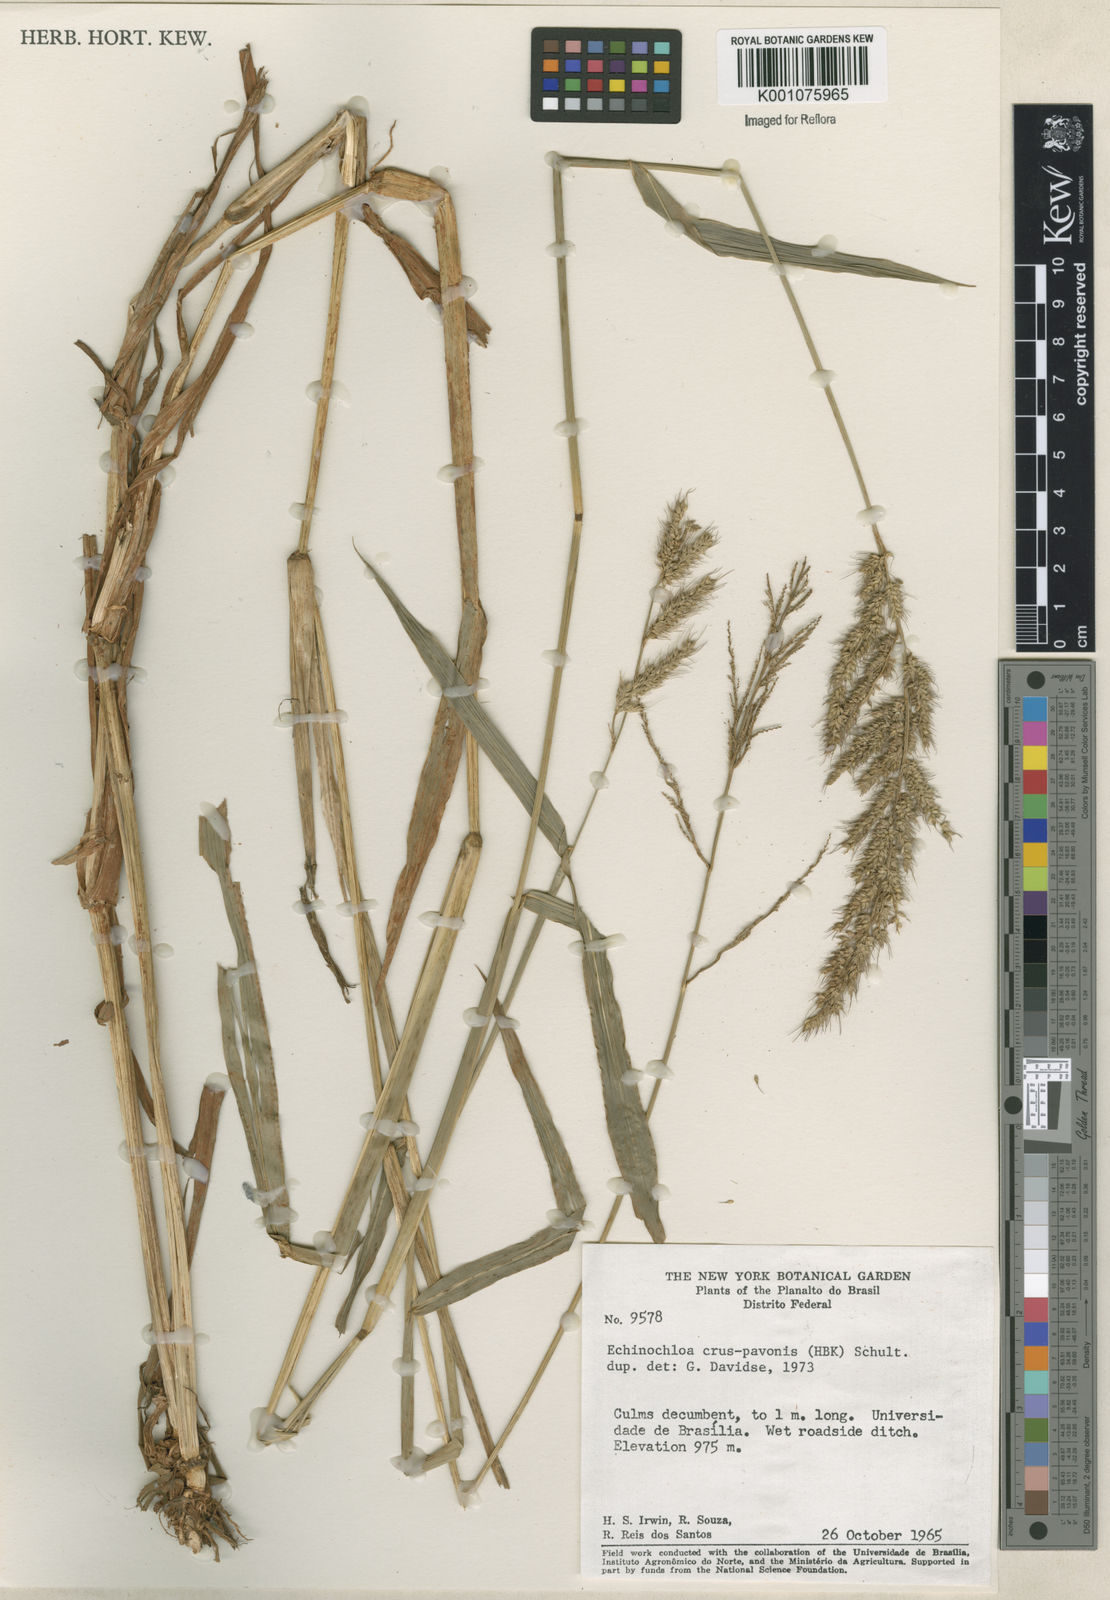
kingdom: Plantae
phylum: Tracheophyta
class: Liliopsida
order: Poales
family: Poaceae
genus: Echinochloa
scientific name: Echinochloa crus-pavonis
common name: Gulf cockspur grass
